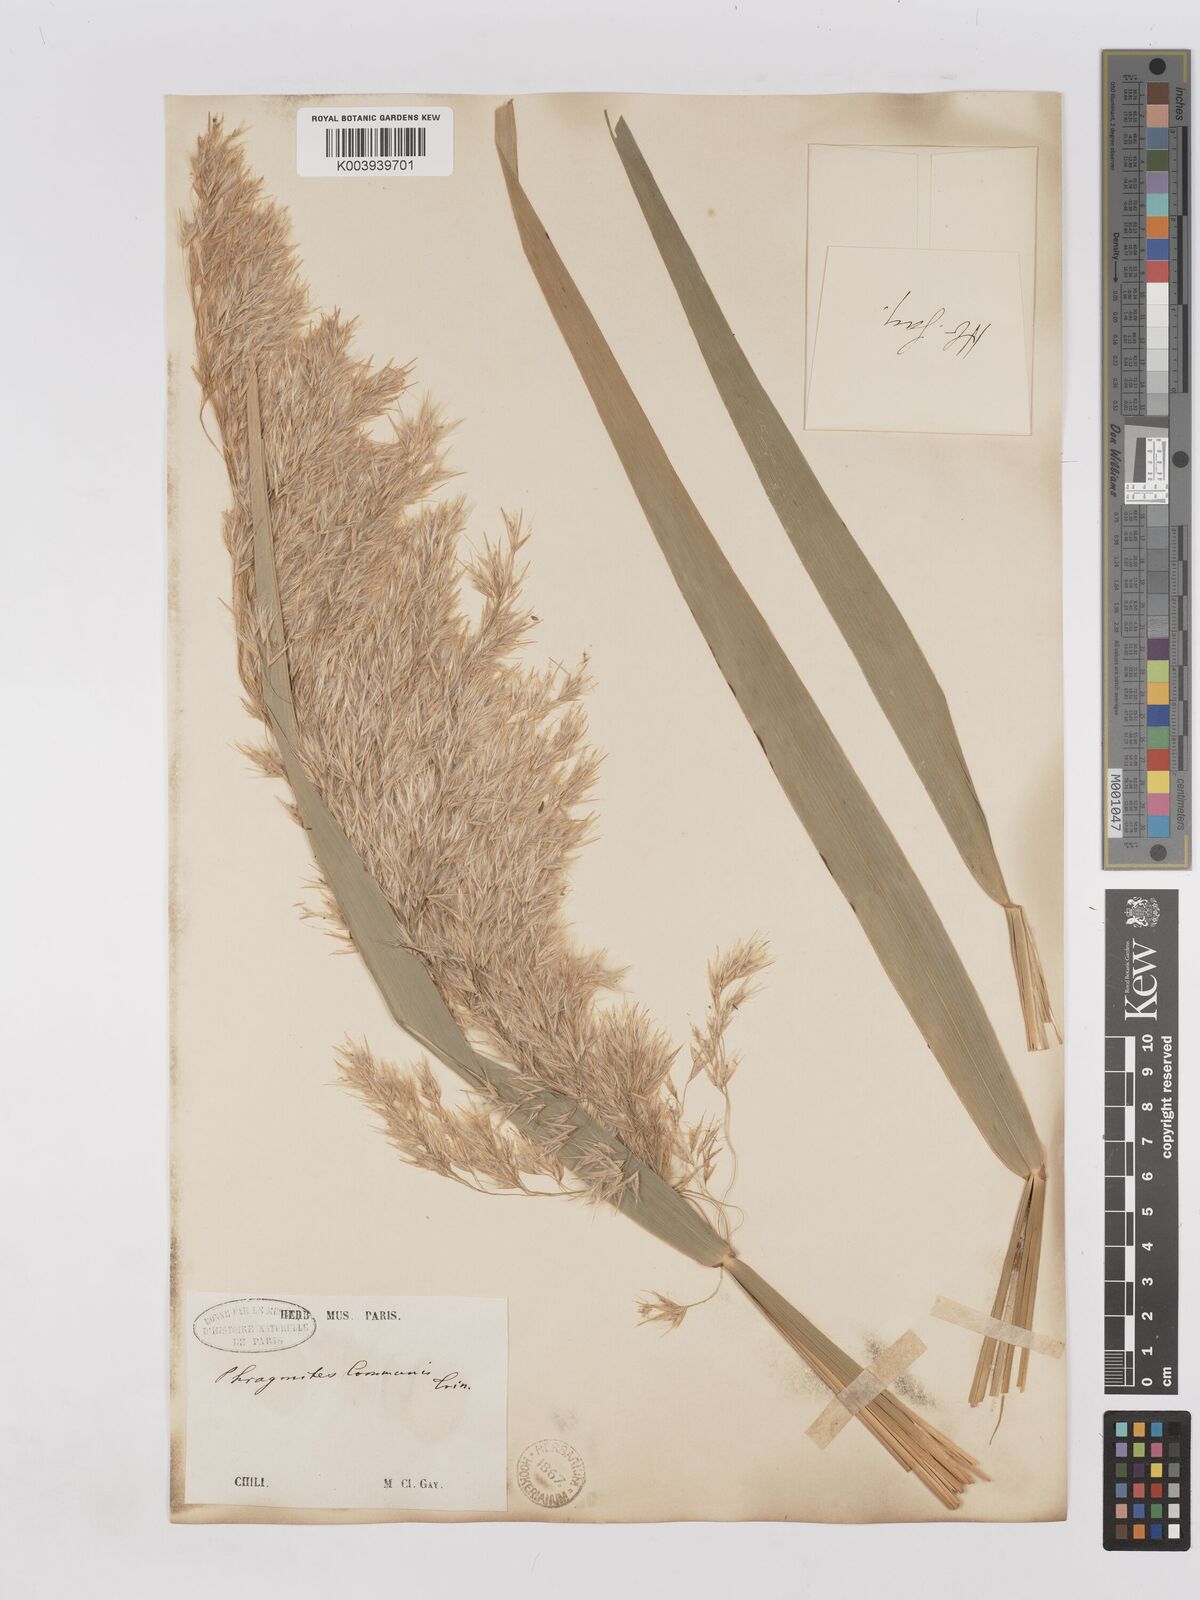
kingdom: Plantae
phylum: Tracheophyta
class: Liliopsida
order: Poales
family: Poaceae
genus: Phragmites
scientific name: Phragmites australis
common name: Common reed
